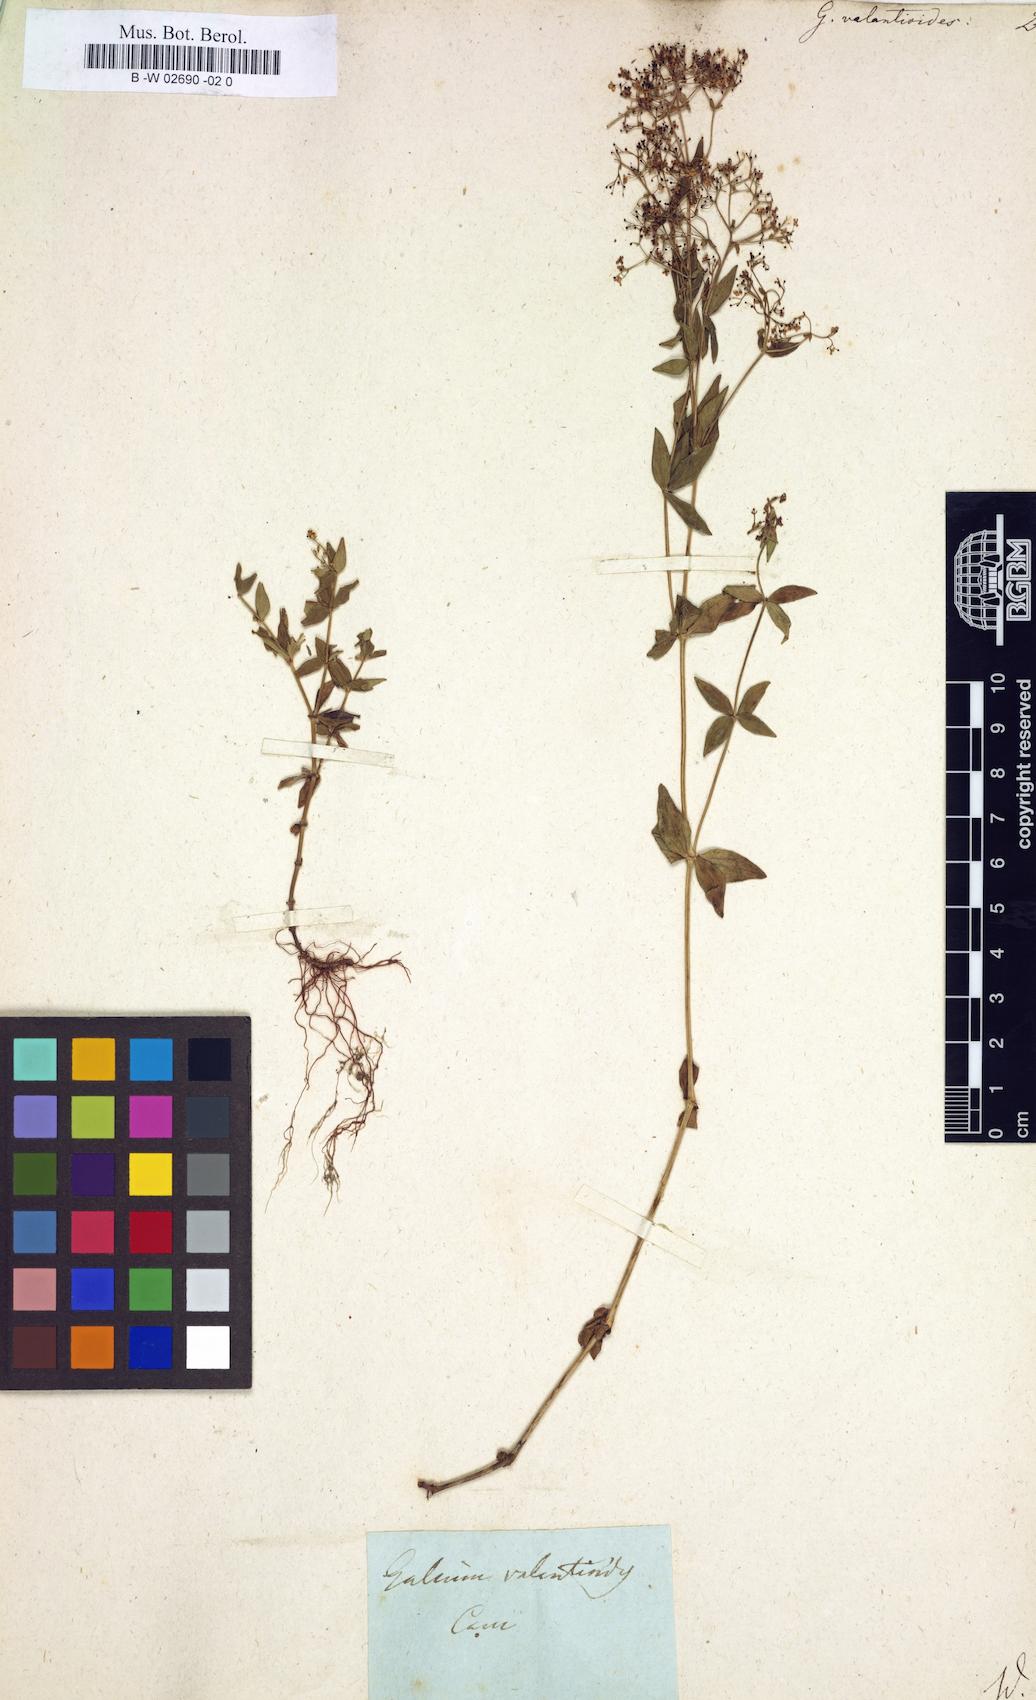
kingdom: Plantae
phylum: Tracheophyta
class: Magnoliopsida
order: Gentianales
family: Rubiaceae
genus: Galium
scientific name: Galium valantioides
